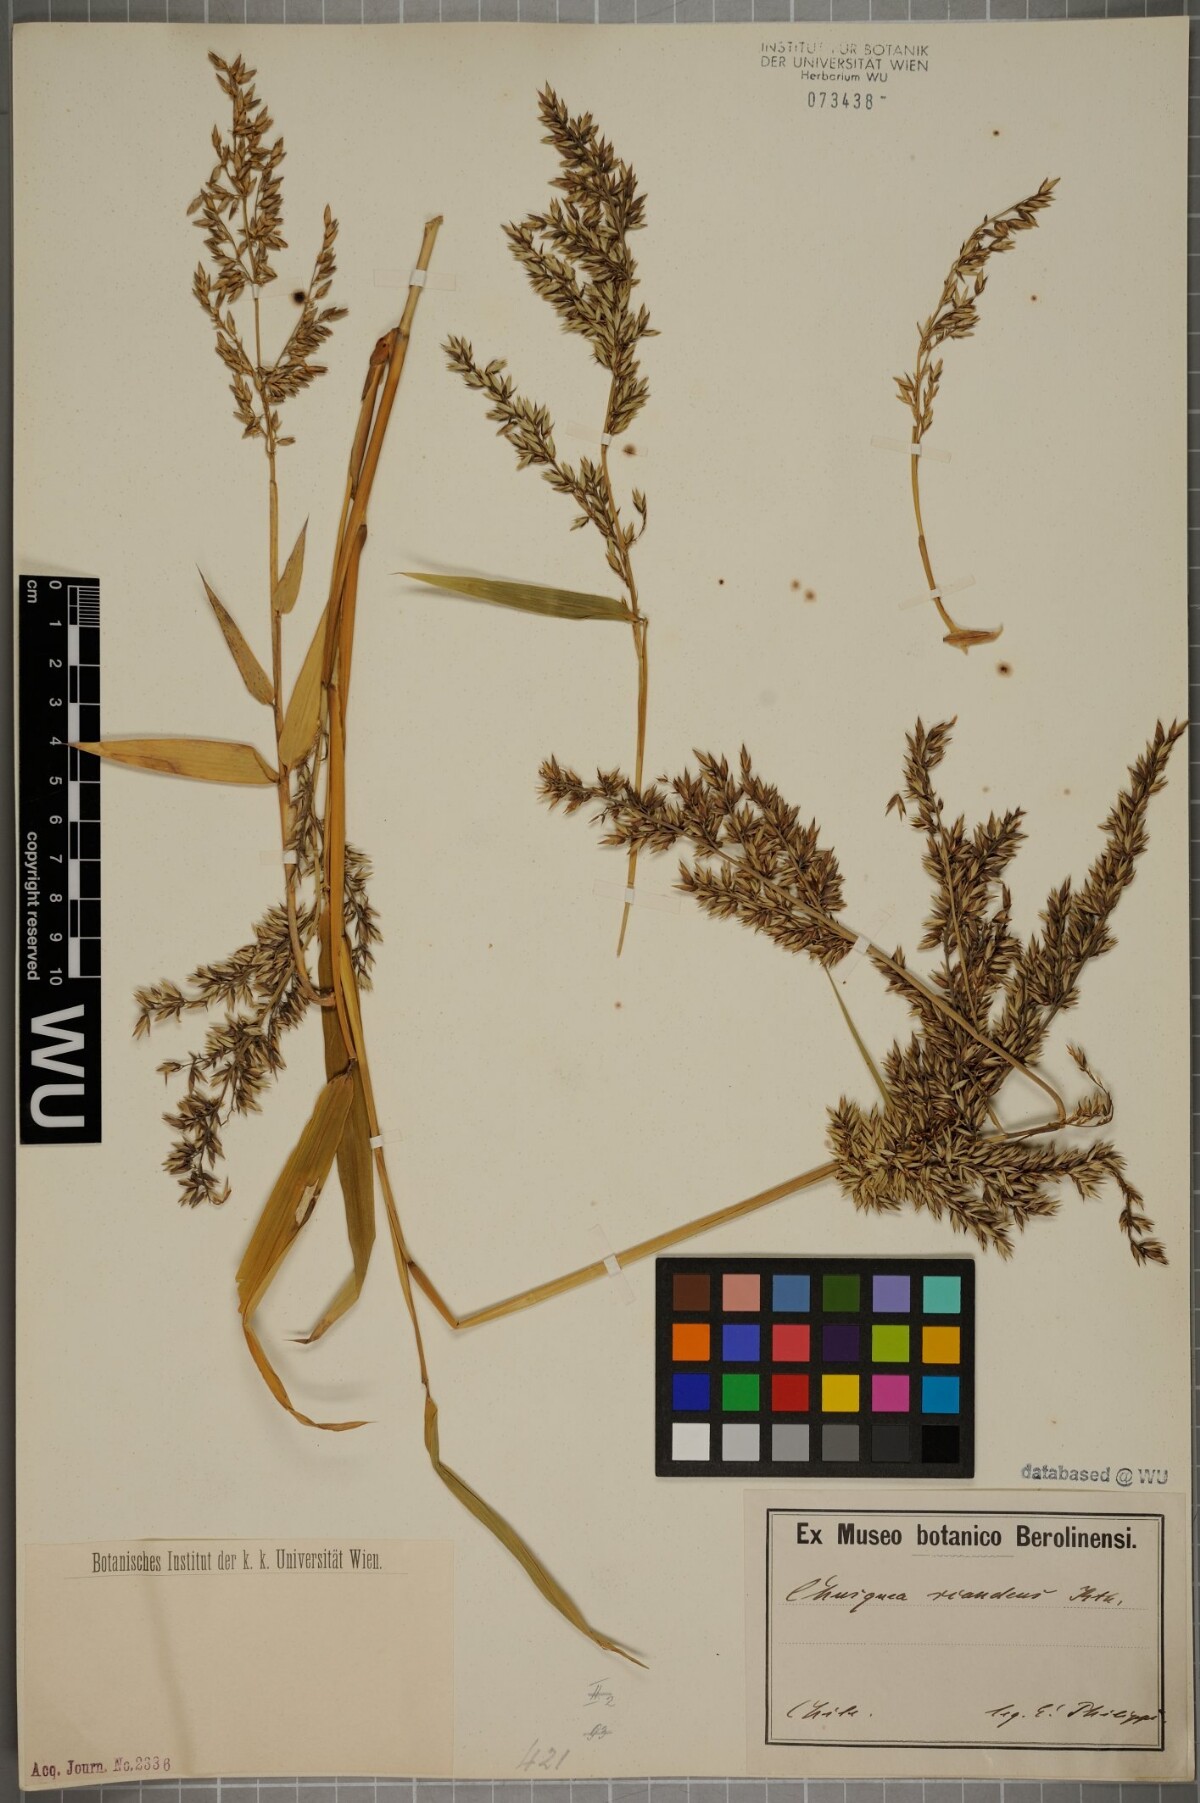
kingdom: Plantae
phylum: Tracheophyta
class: Liliopsida
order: Poales
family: Poaceae
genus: Chusquea
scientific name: Chusquea scandens
